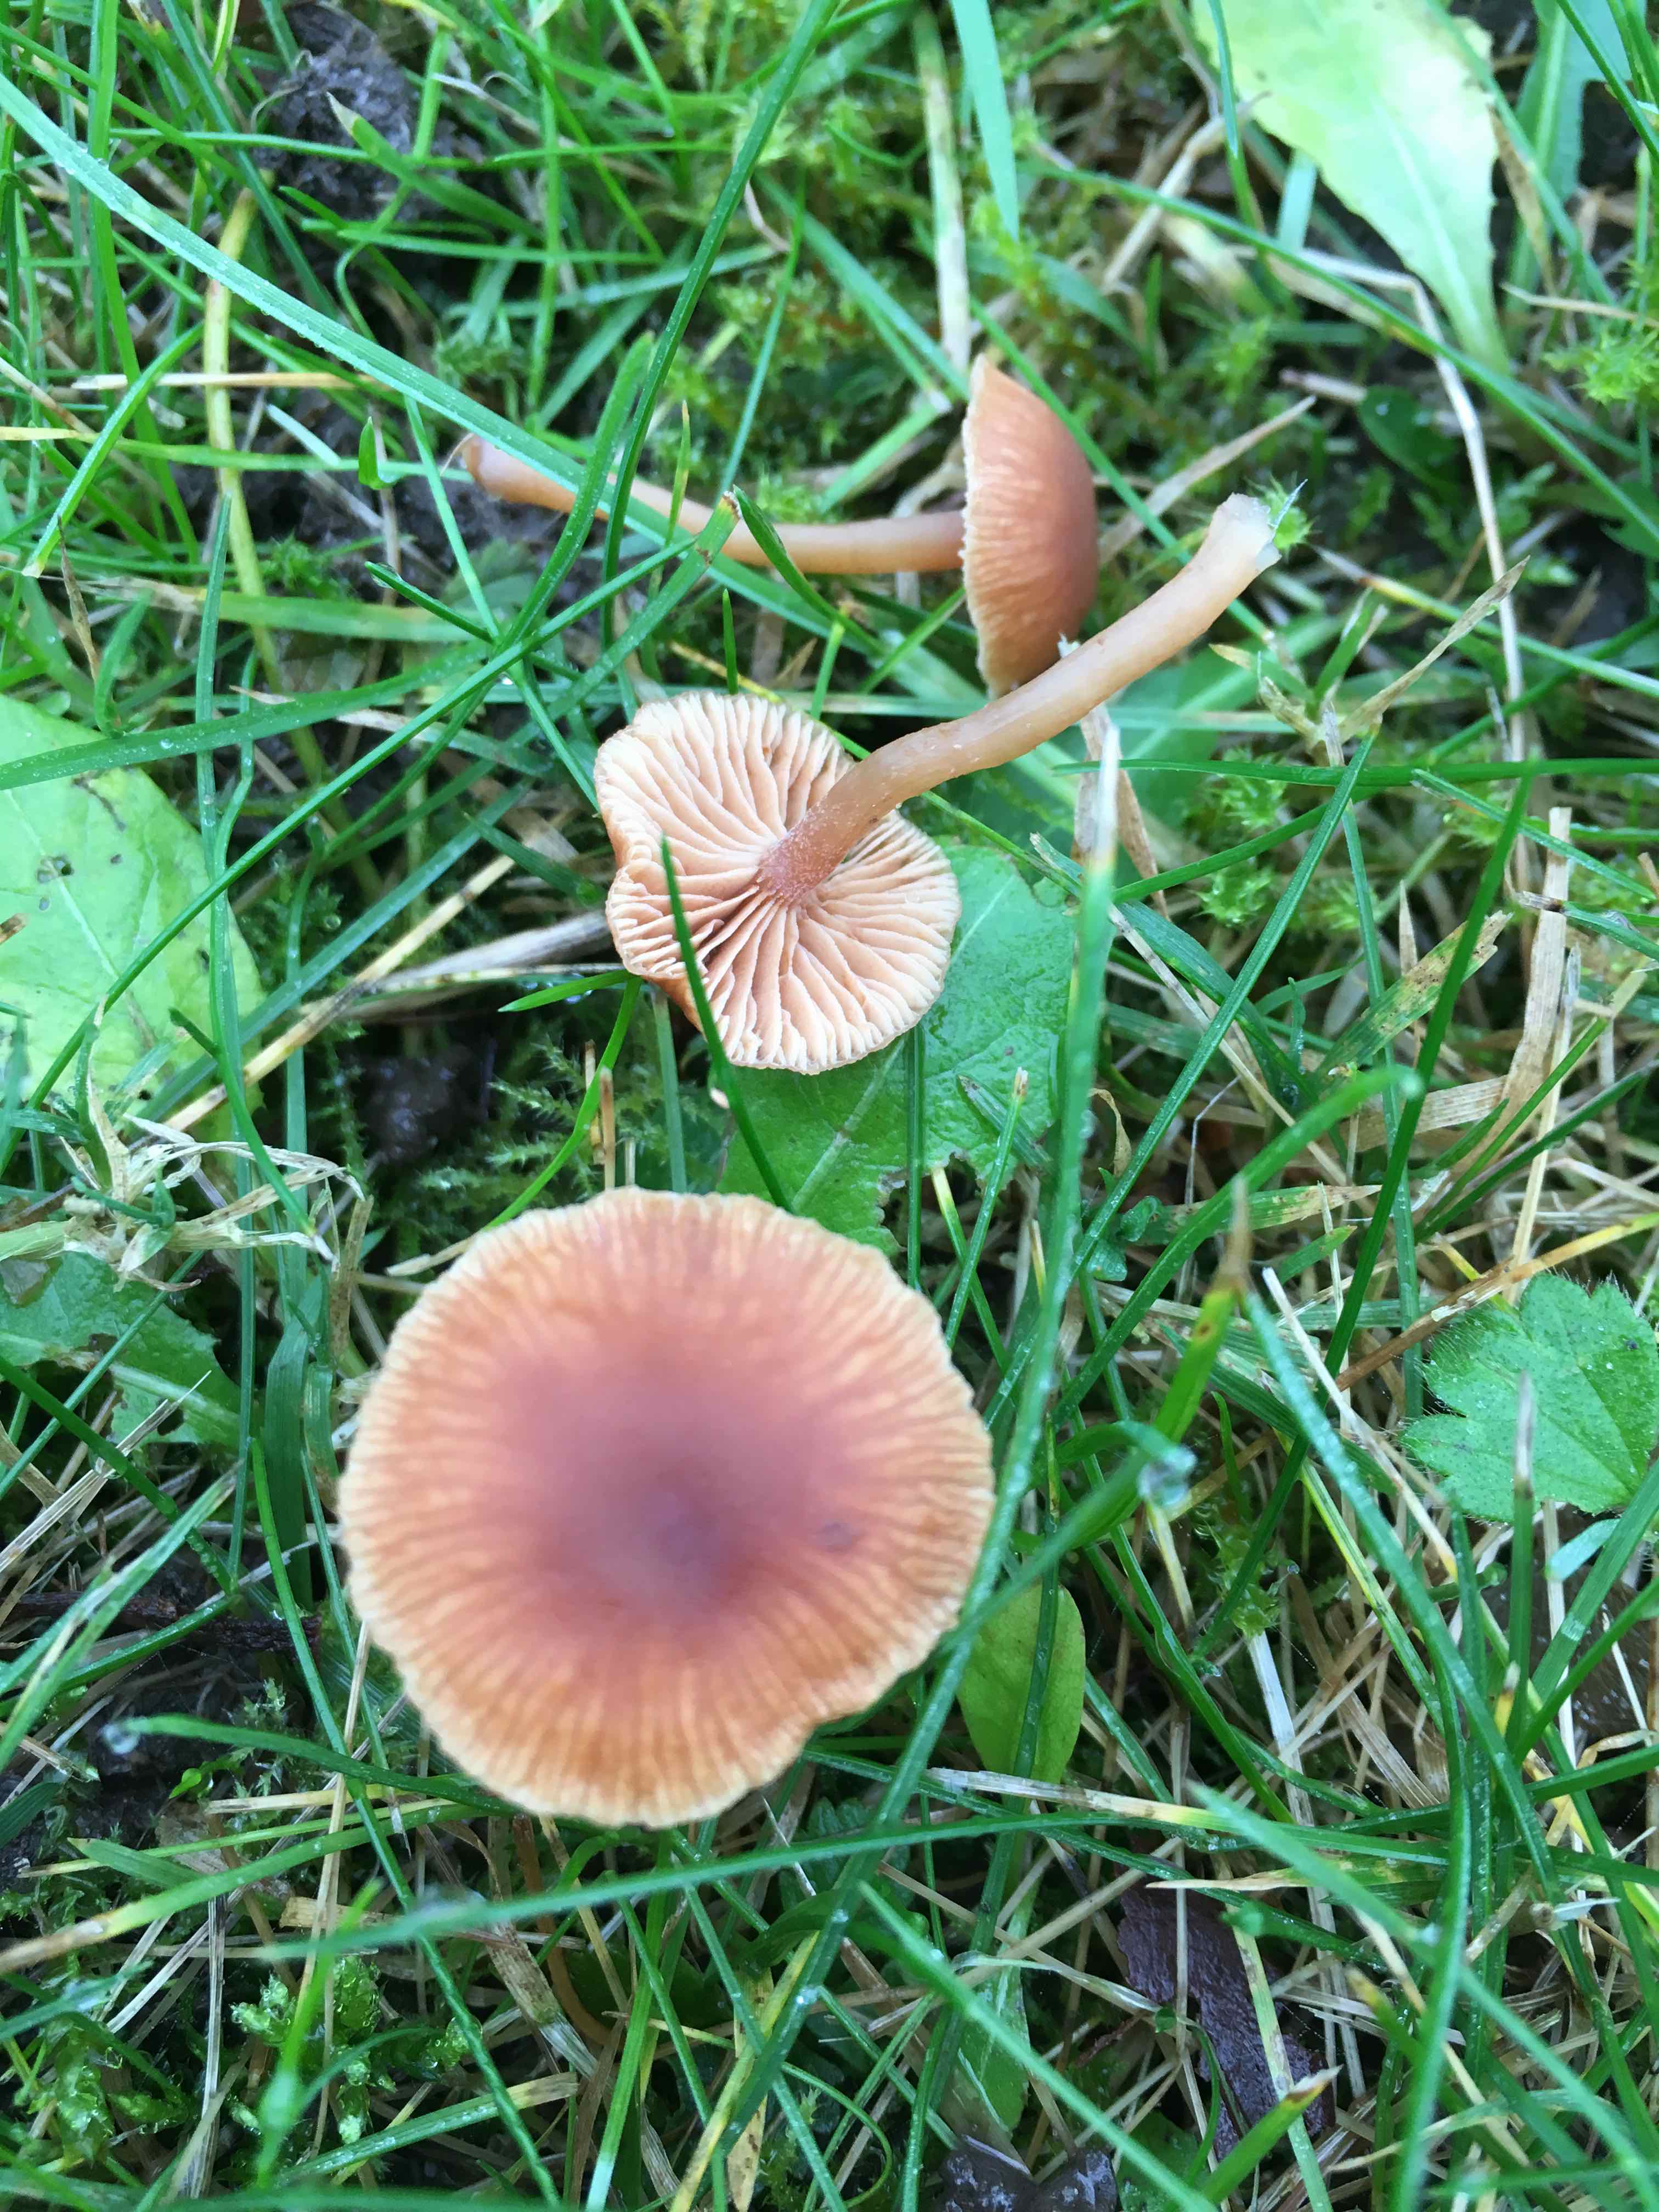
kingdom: Fungi
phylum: Basidiomycota
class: Agaricomycetes
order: Agaricales
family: Tubariaceae
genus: Tubaria
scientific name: Tubaria furfuracea
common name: kliddet fnughat
